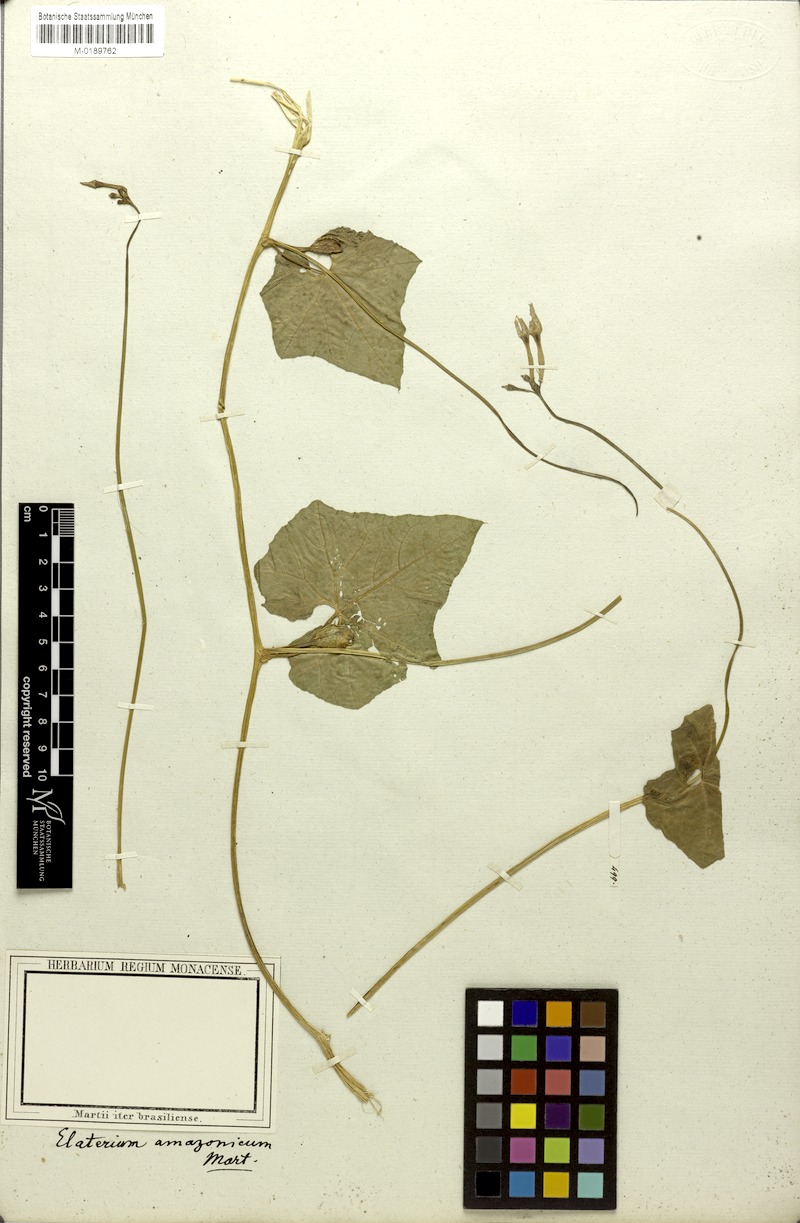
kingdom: Plantae
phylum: Tracheophyta
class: Magnoliopsida
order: Cucurbitales
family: Cucurbitaceae
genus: Cyclanthera
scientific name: Cyclanthera carthagenensis
